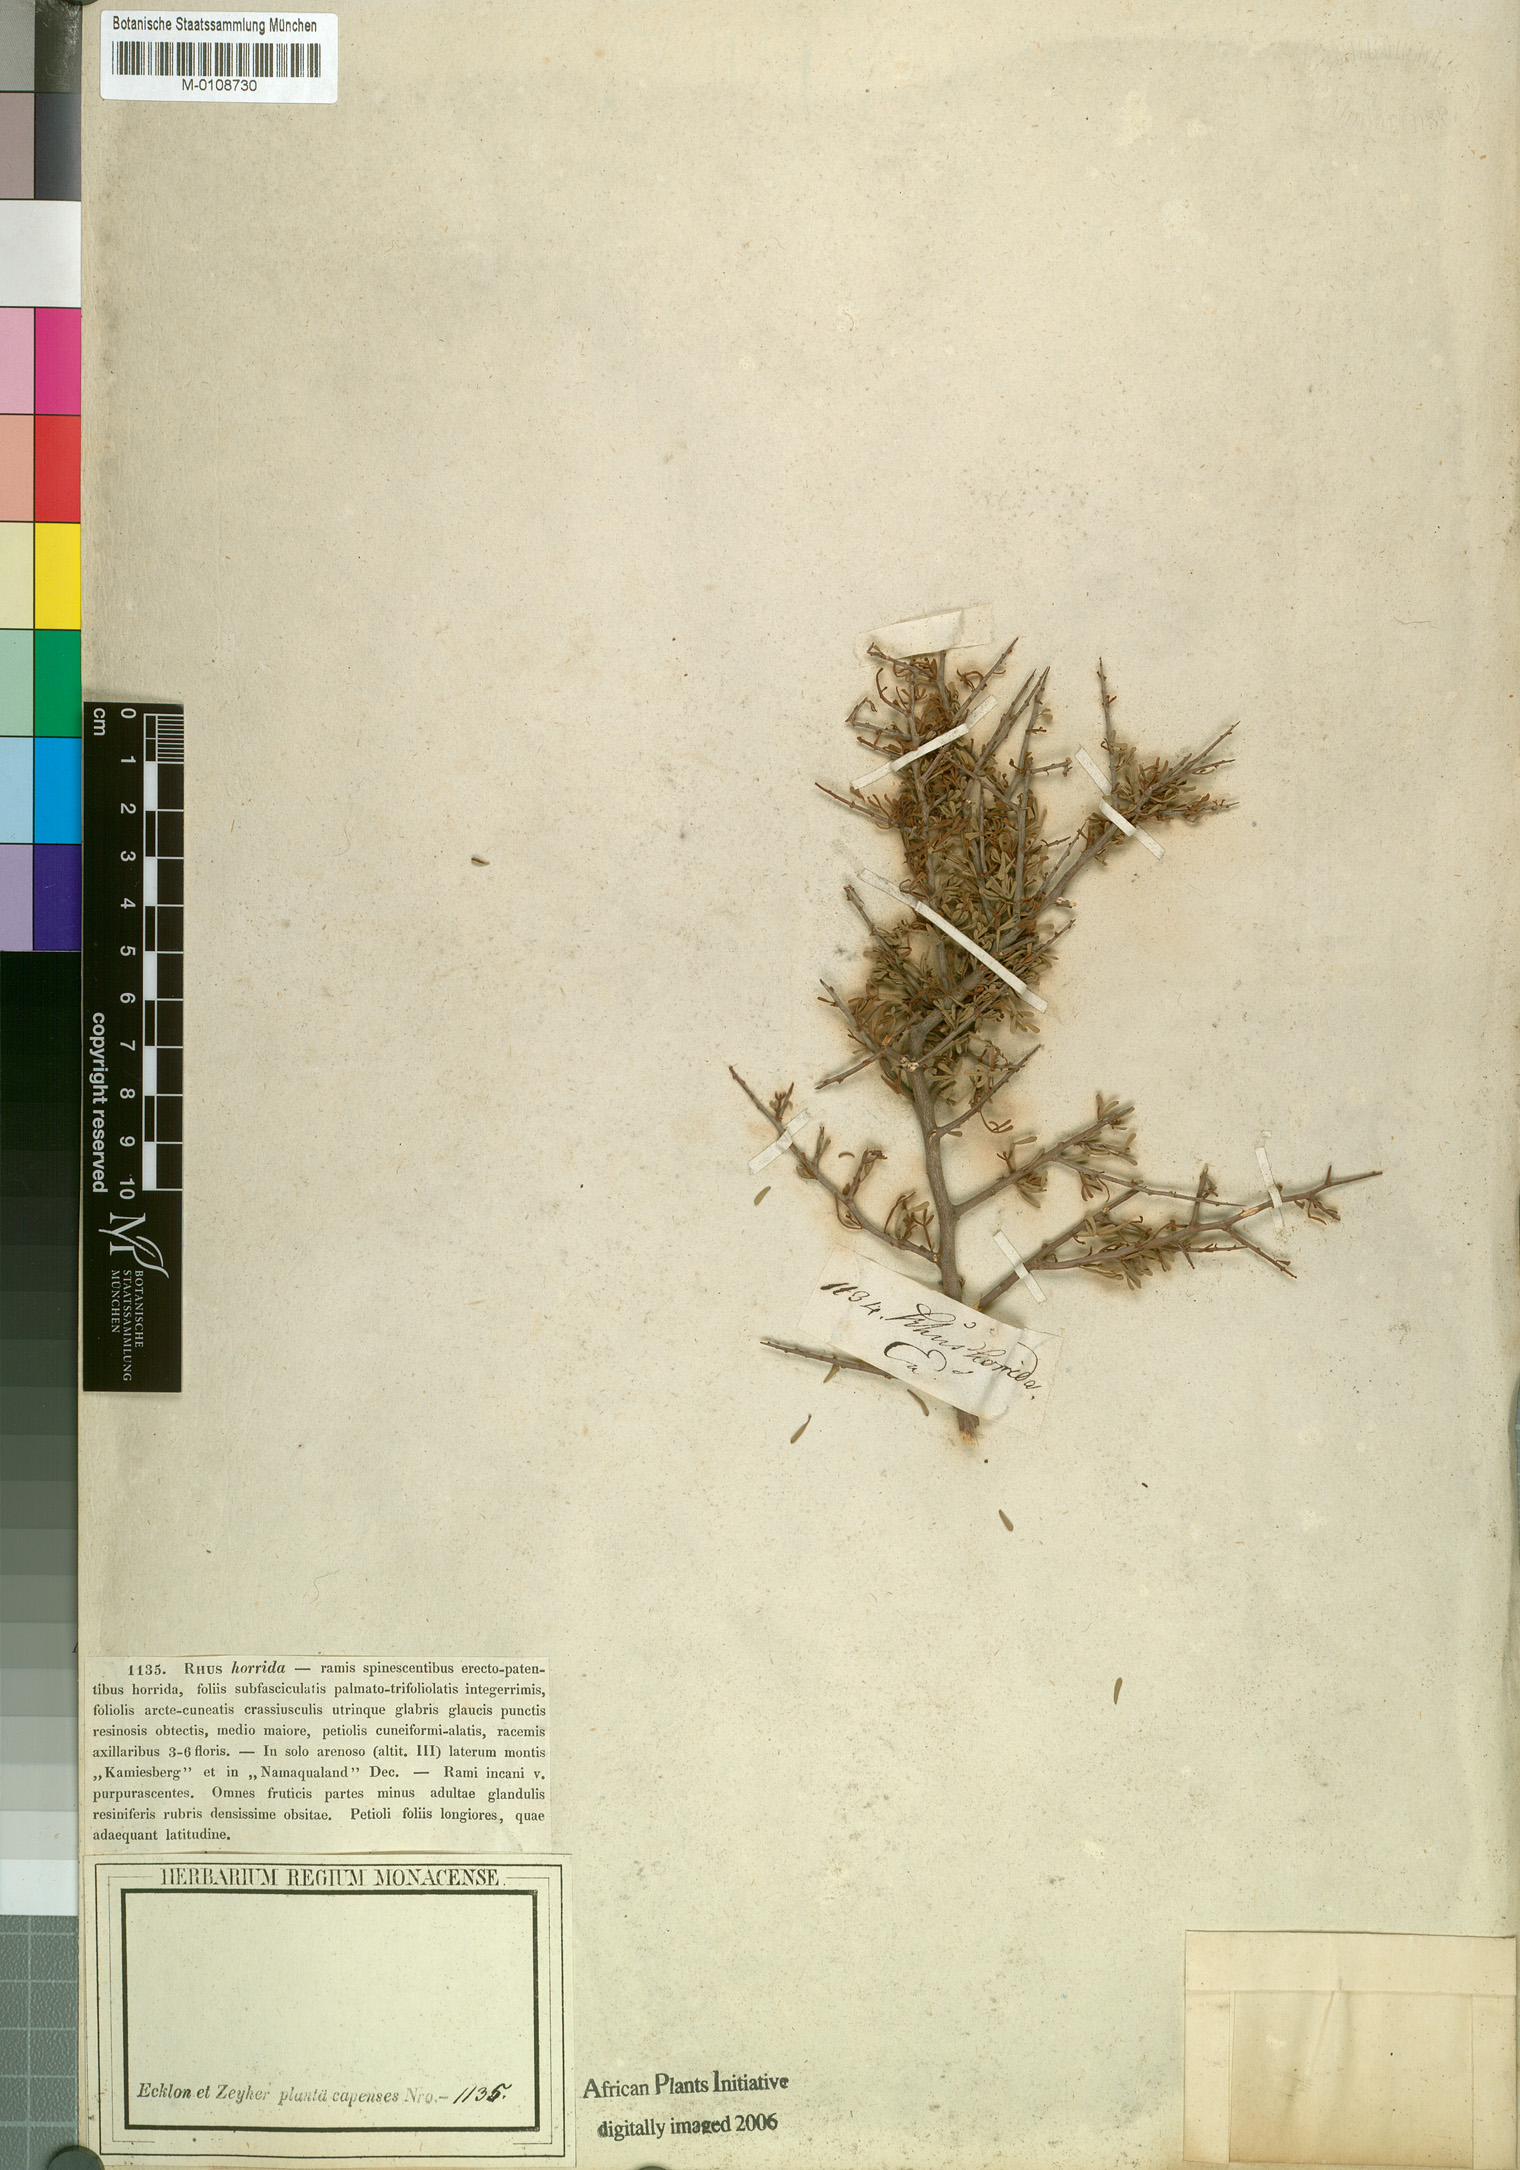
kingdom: Plantae
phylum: Tracheophyta
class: Magnoliopsida
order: Sapindales
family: Anacardiaceae
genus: Searsia
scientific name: Searsia horrida
